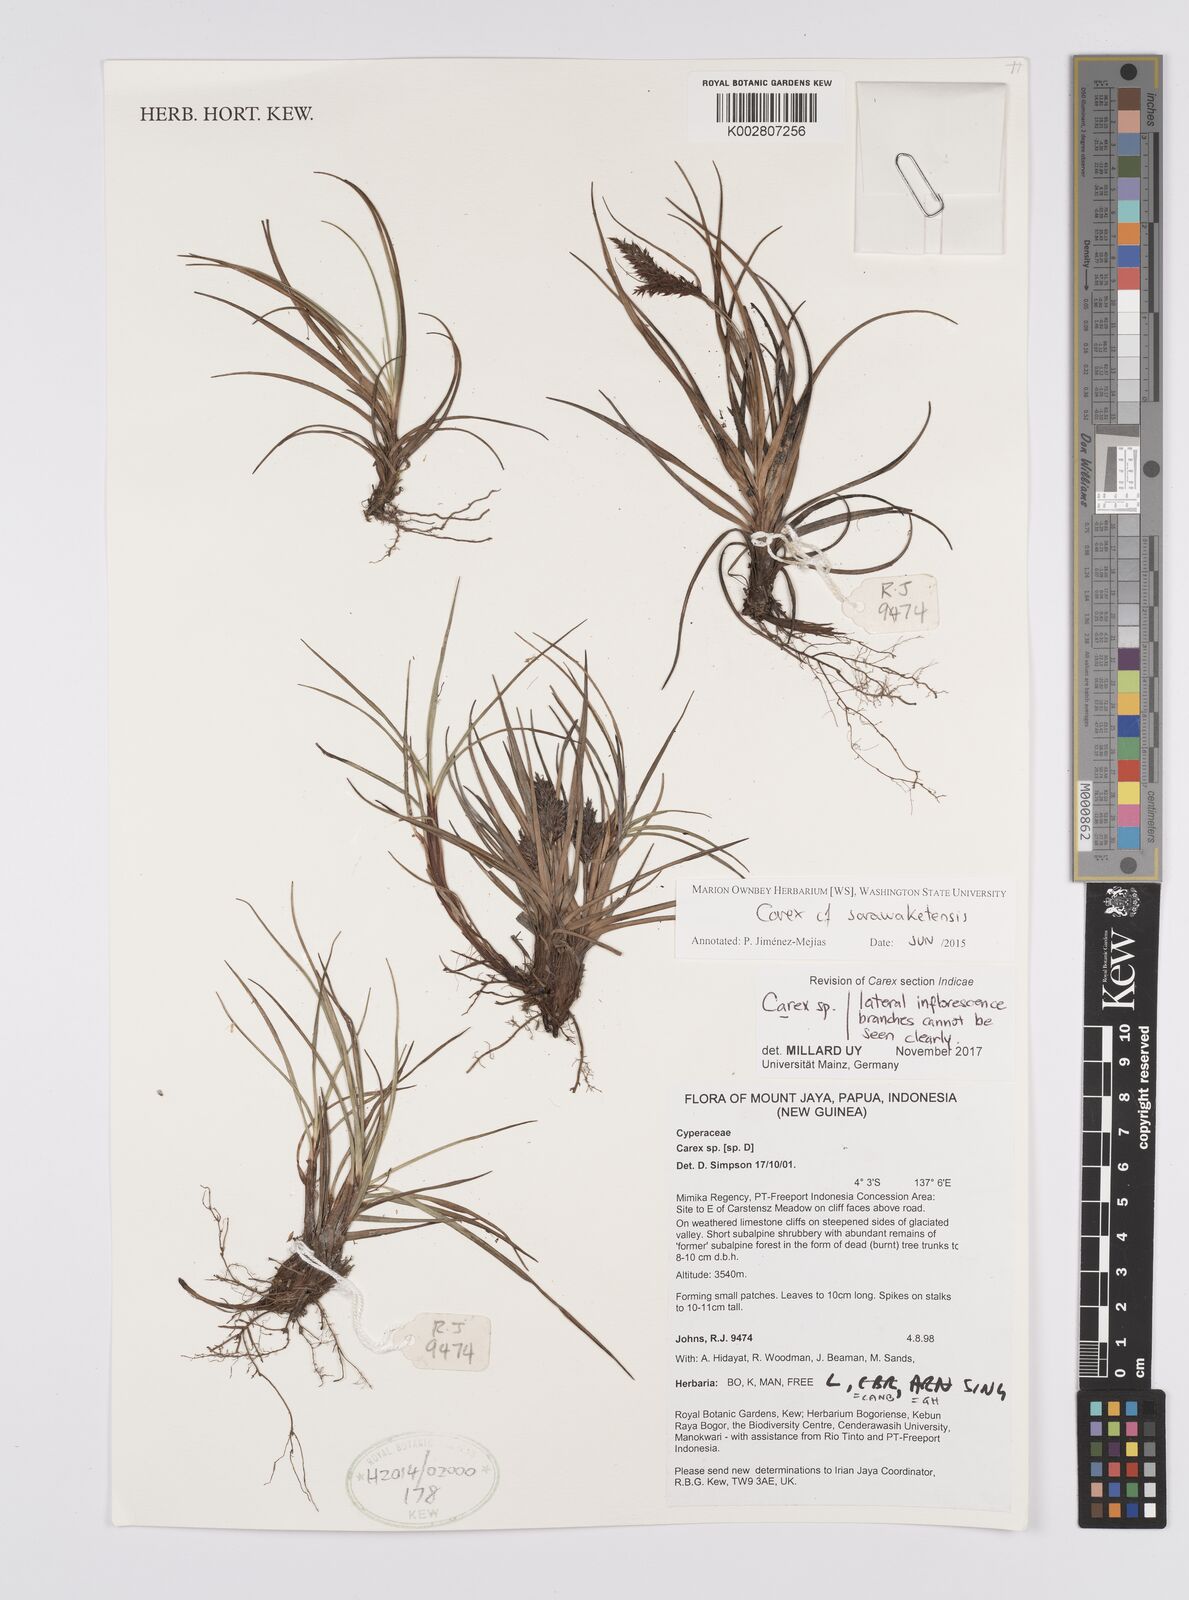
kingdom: Plantae
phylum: Tracheophyta
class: Liliopsida
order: Poales
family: Cyperaceae
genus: Carex
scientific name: Carex
